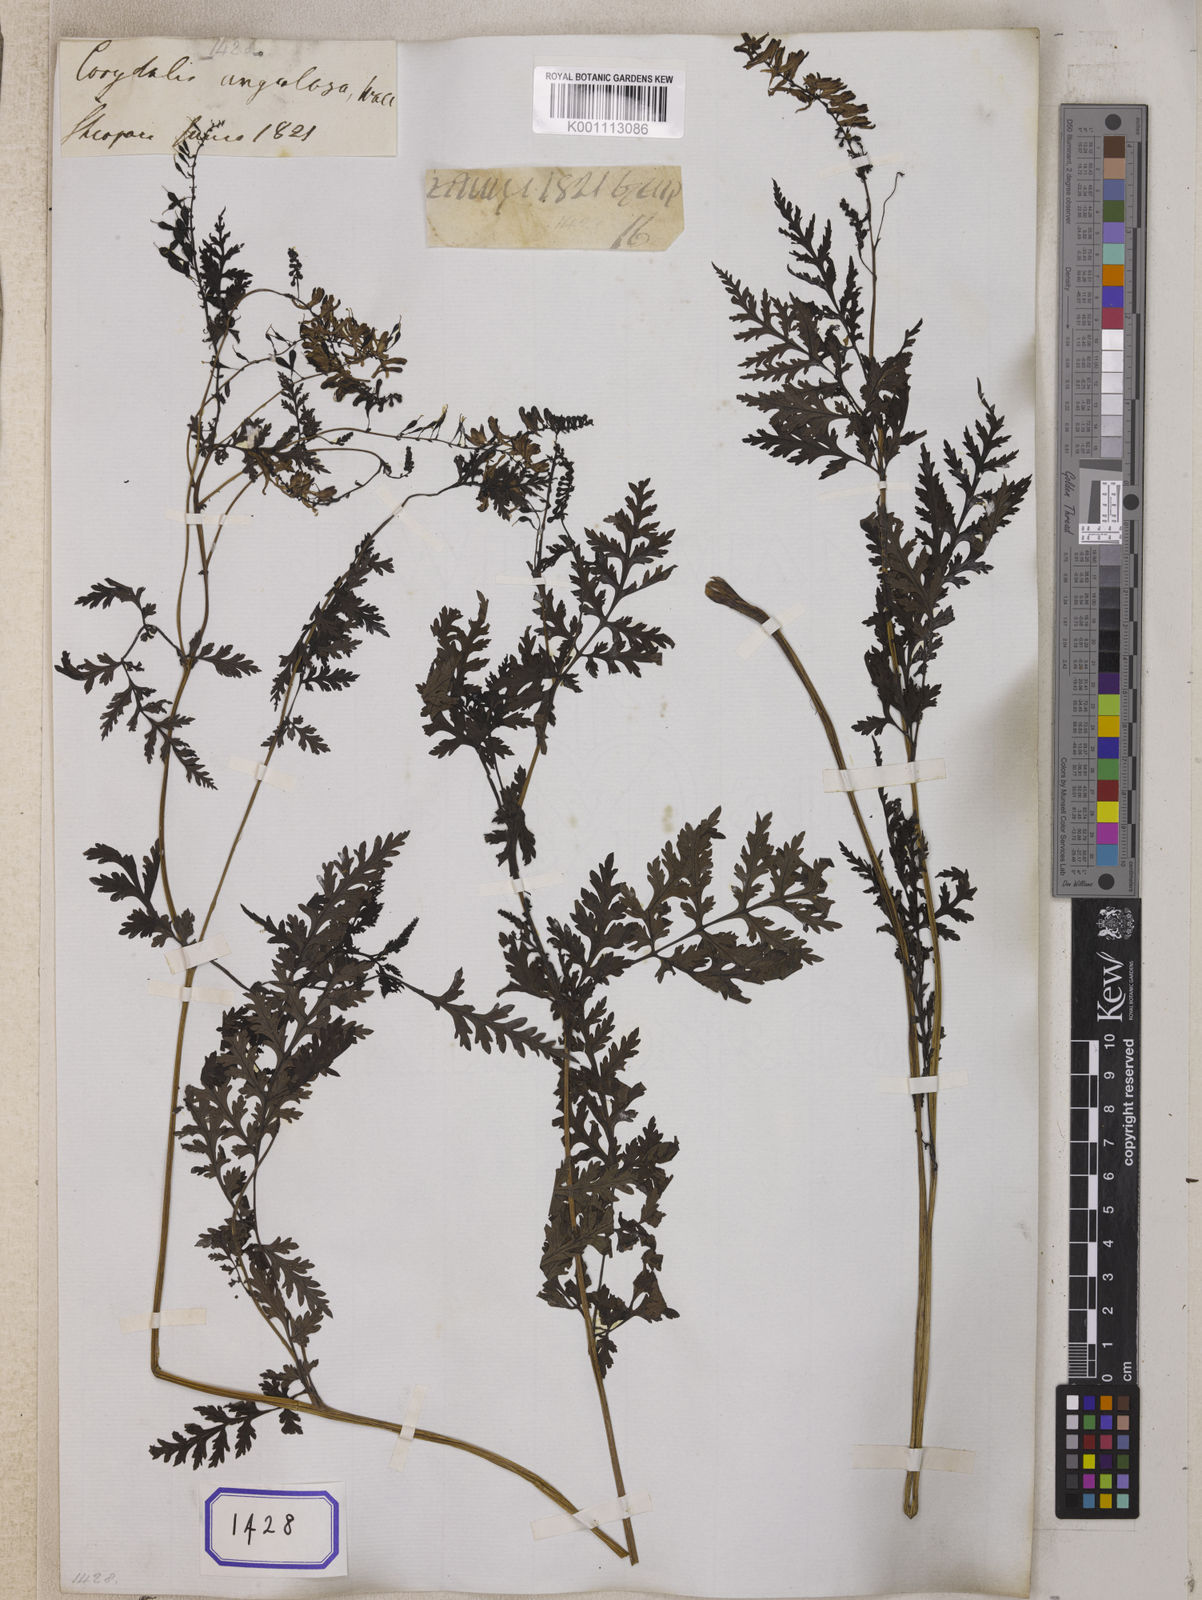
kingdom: Plantae
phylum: Tracheophyta
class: Magnoliopsida
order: Ranunculales
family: Papaveraceae
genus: Corydalis
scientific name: Corydalis chaerophylla
